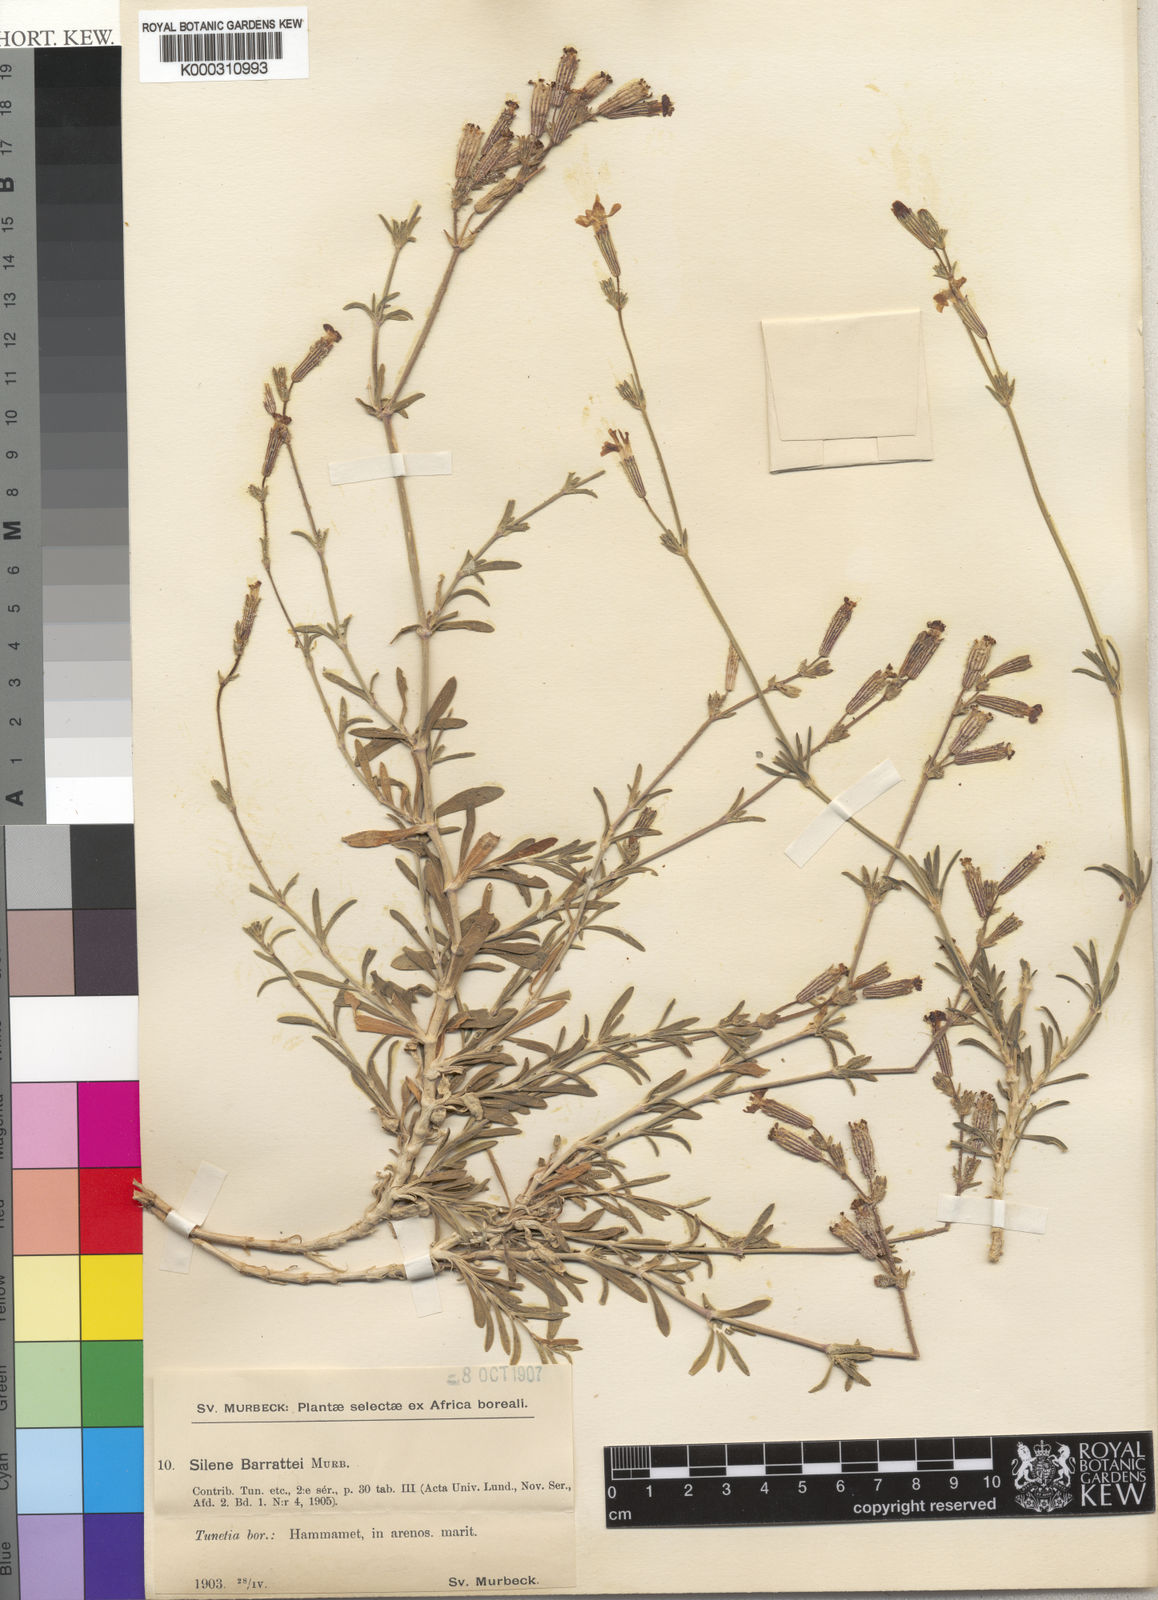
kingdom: Plantae
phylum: Tracheophyta
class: Magnoliopsida
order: Caryophyllales
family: Caryophyllaceae
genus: Silene
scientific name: Silene barrattei
